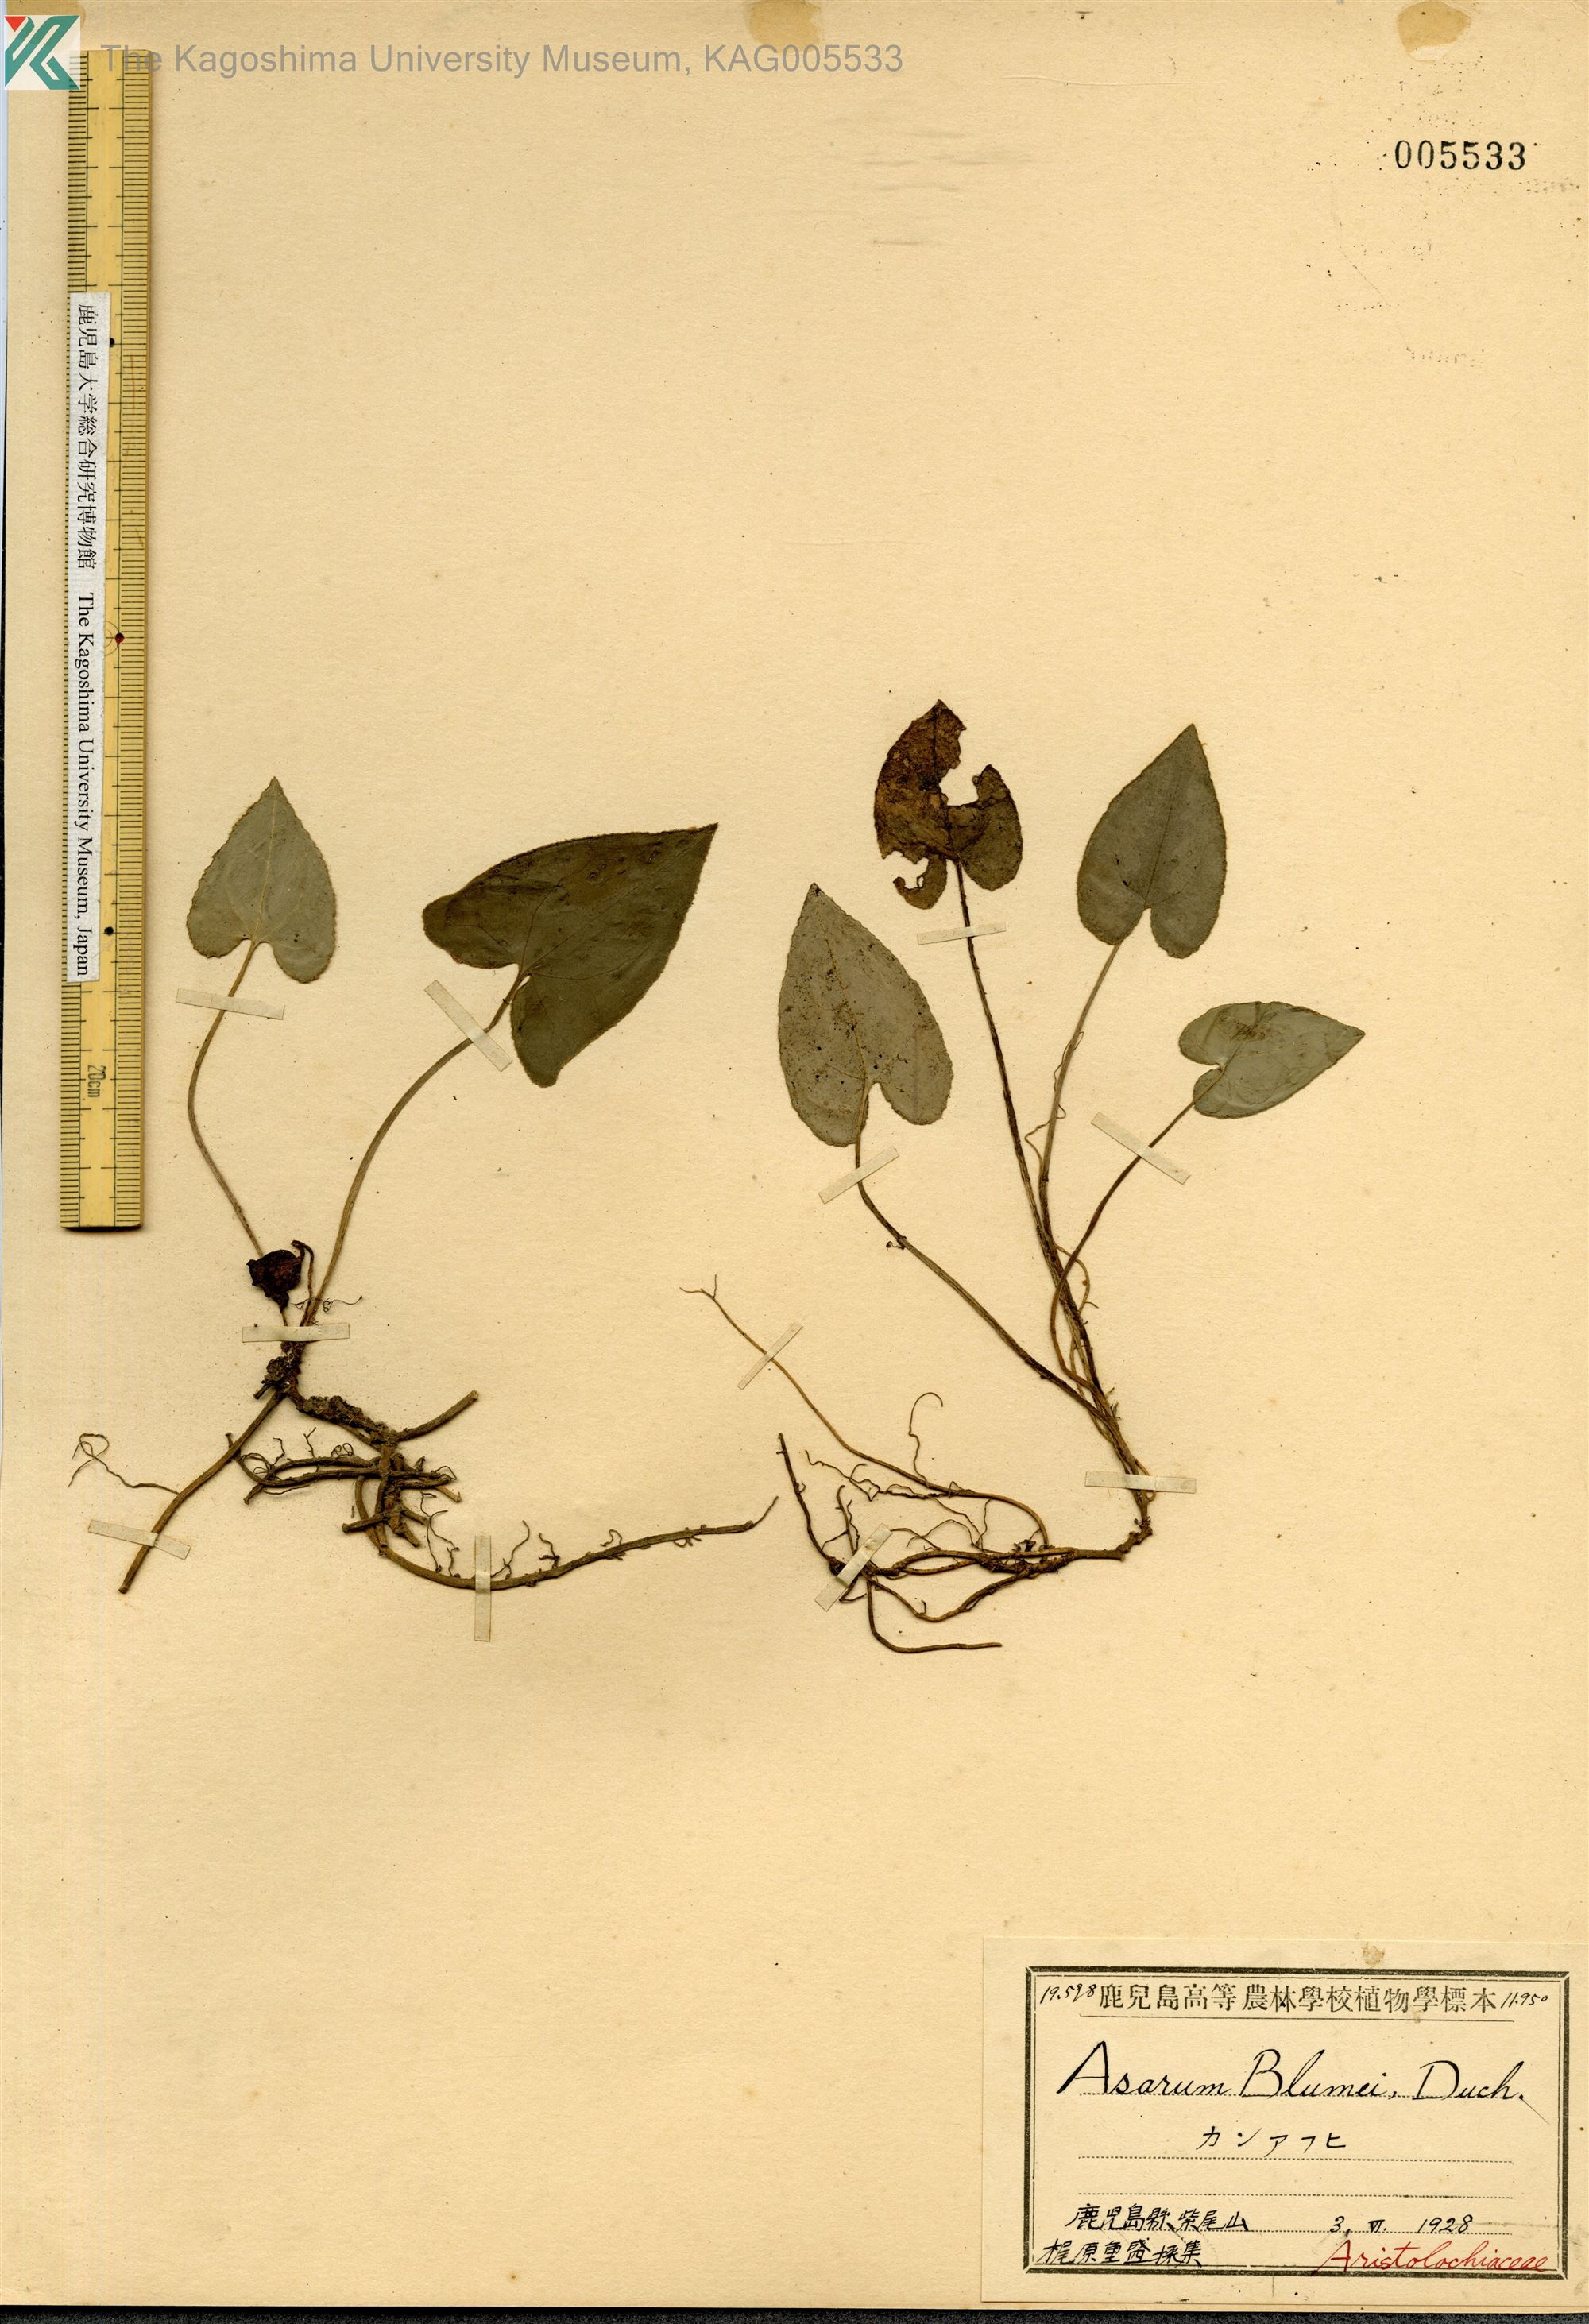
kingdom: Plantae
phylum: Tracheophyta
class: Magnoliopsida
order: Piperales
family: Aristolochiaceae
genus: Asarum
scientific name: Asarum hexalobum
